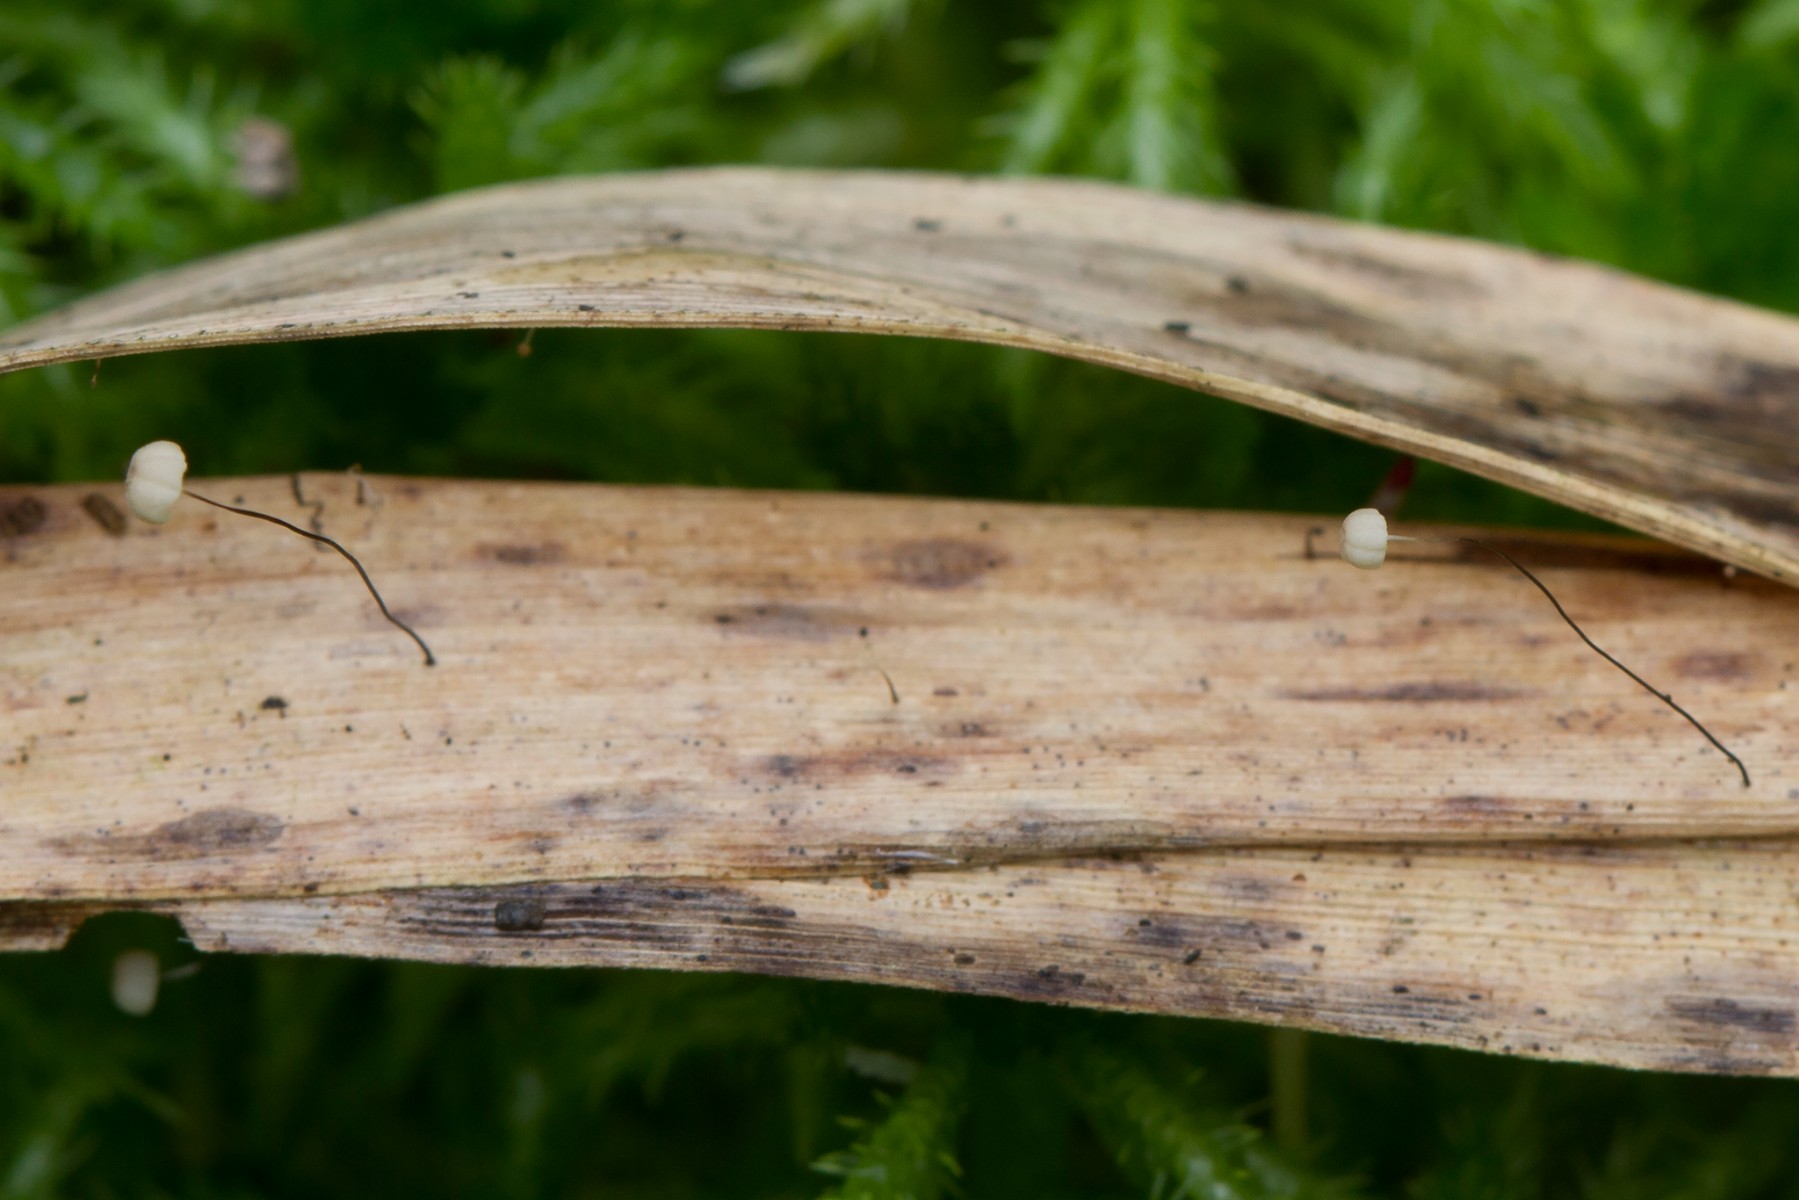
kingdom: Fungi
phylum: Basidiomycota
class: Agaricomycetes
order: Agaricales
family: Marasmiaceae
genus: Marasmius
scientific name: Marasmius limosus
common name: kær-bruskhat
